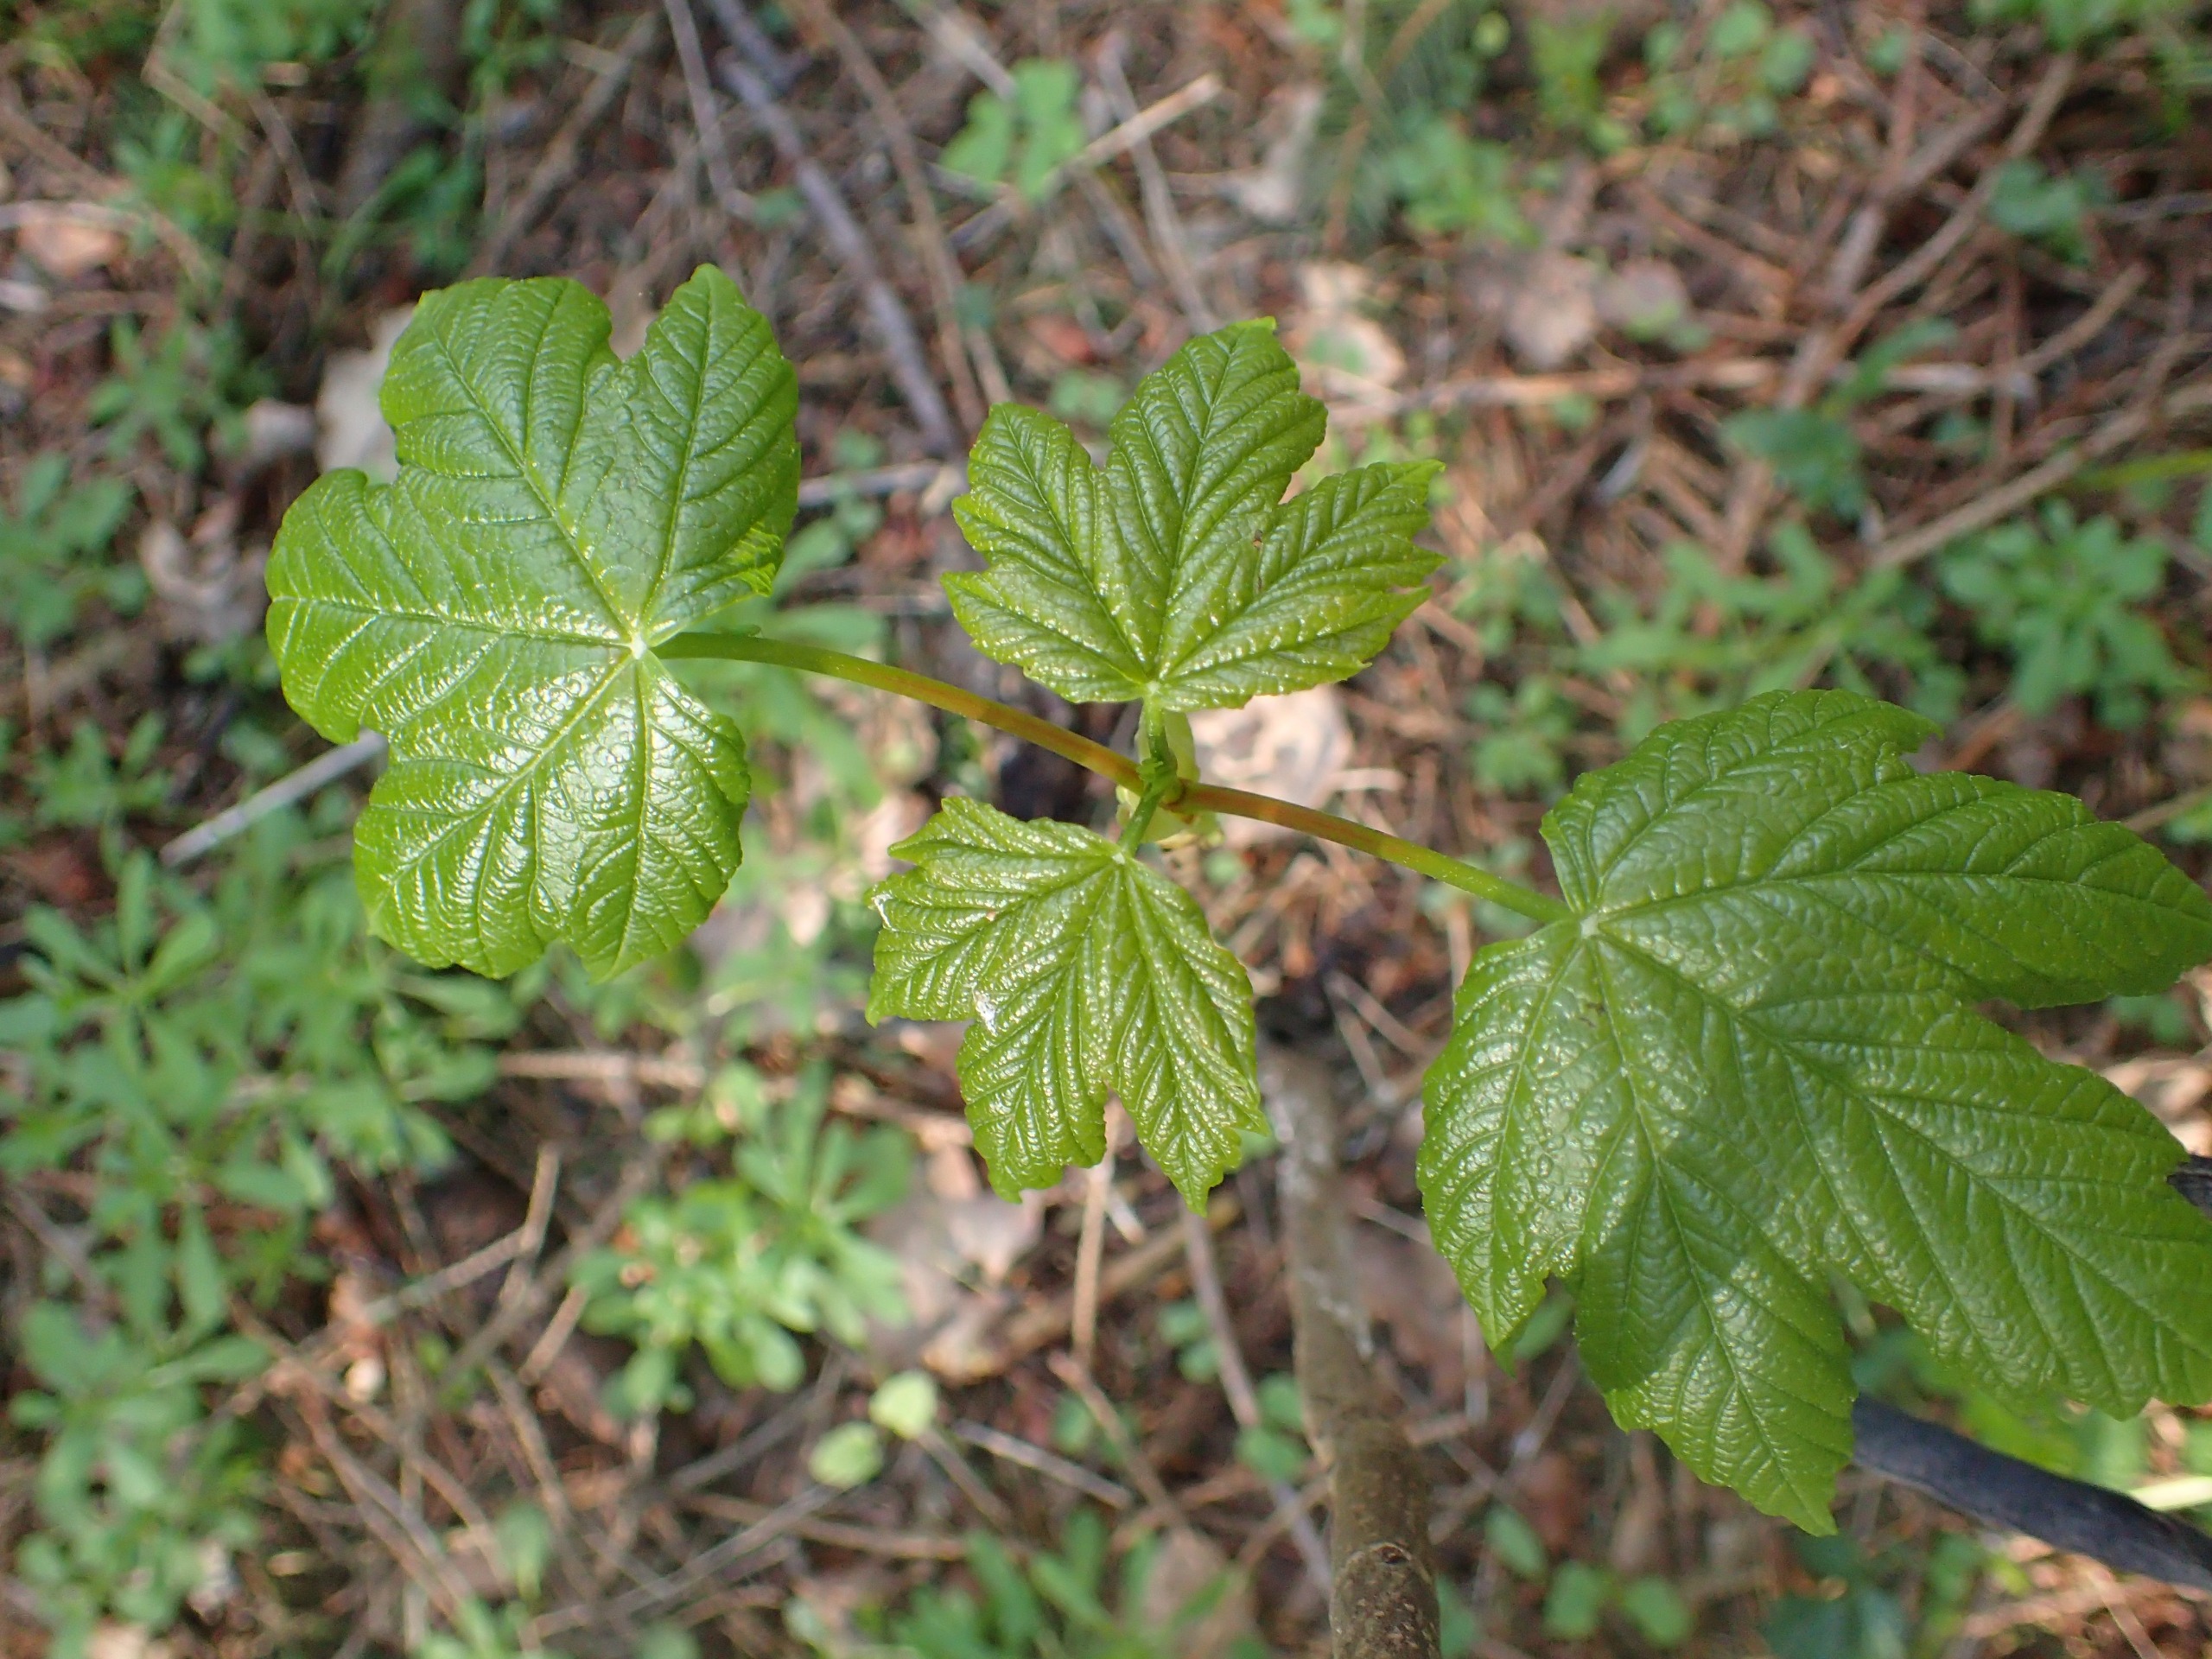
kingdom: Plantae
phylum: Tracheophyta
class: Magnoliopsida
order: Sapindales
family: Sapindaceae
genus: Acer
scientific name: Acer pseudoplatanus
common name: Ahorn
